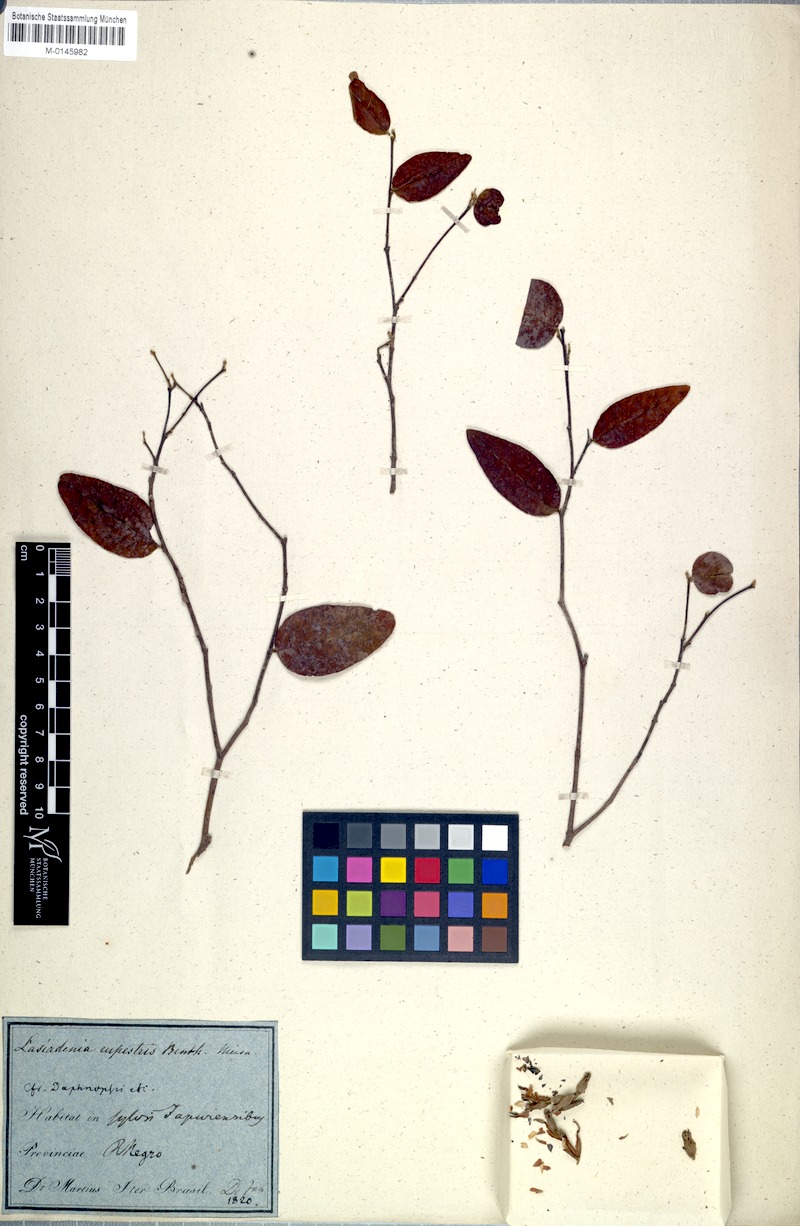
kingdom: Plantae
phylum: Tracheophyta
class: Magnoliopsida
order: Malvales
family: Thymelaeaceae
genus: Lasiadenia
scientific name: Lasiadenia rupestris
